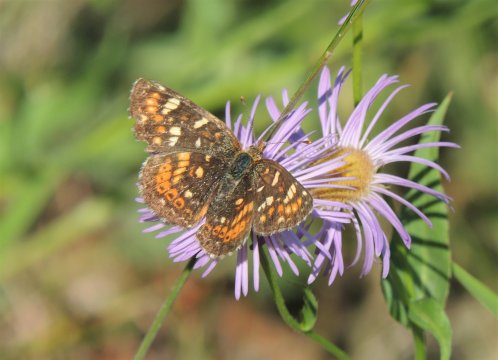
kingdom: Animalia
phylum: Arthropoda
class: Insecta
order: Lepidoptera
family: Nymphalidae
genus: Phyciodes
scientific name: Phyciodes tharos
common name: Field Crescent
